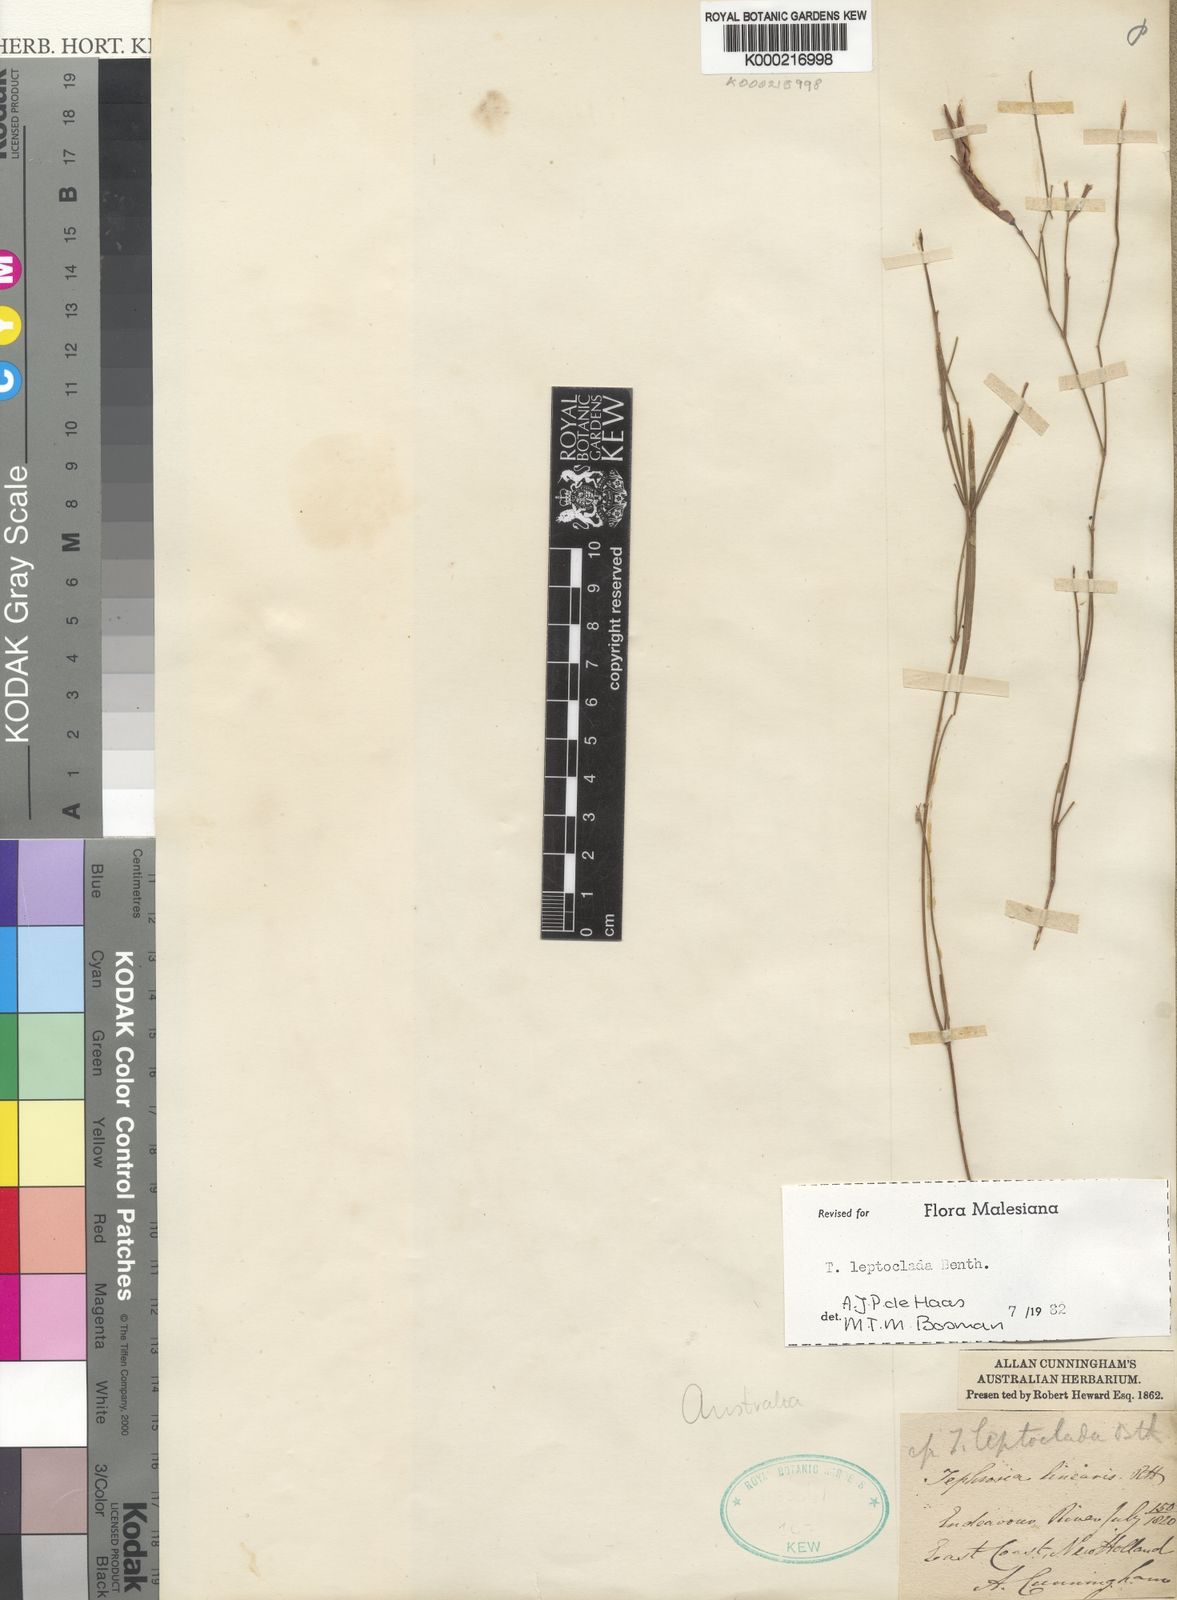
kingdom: Plantae
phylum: Tracheophyta
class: Magnoliopsida
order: Fabales
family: Fabaceae
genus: Tephrosia
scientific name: Tephrosia leptoclada
